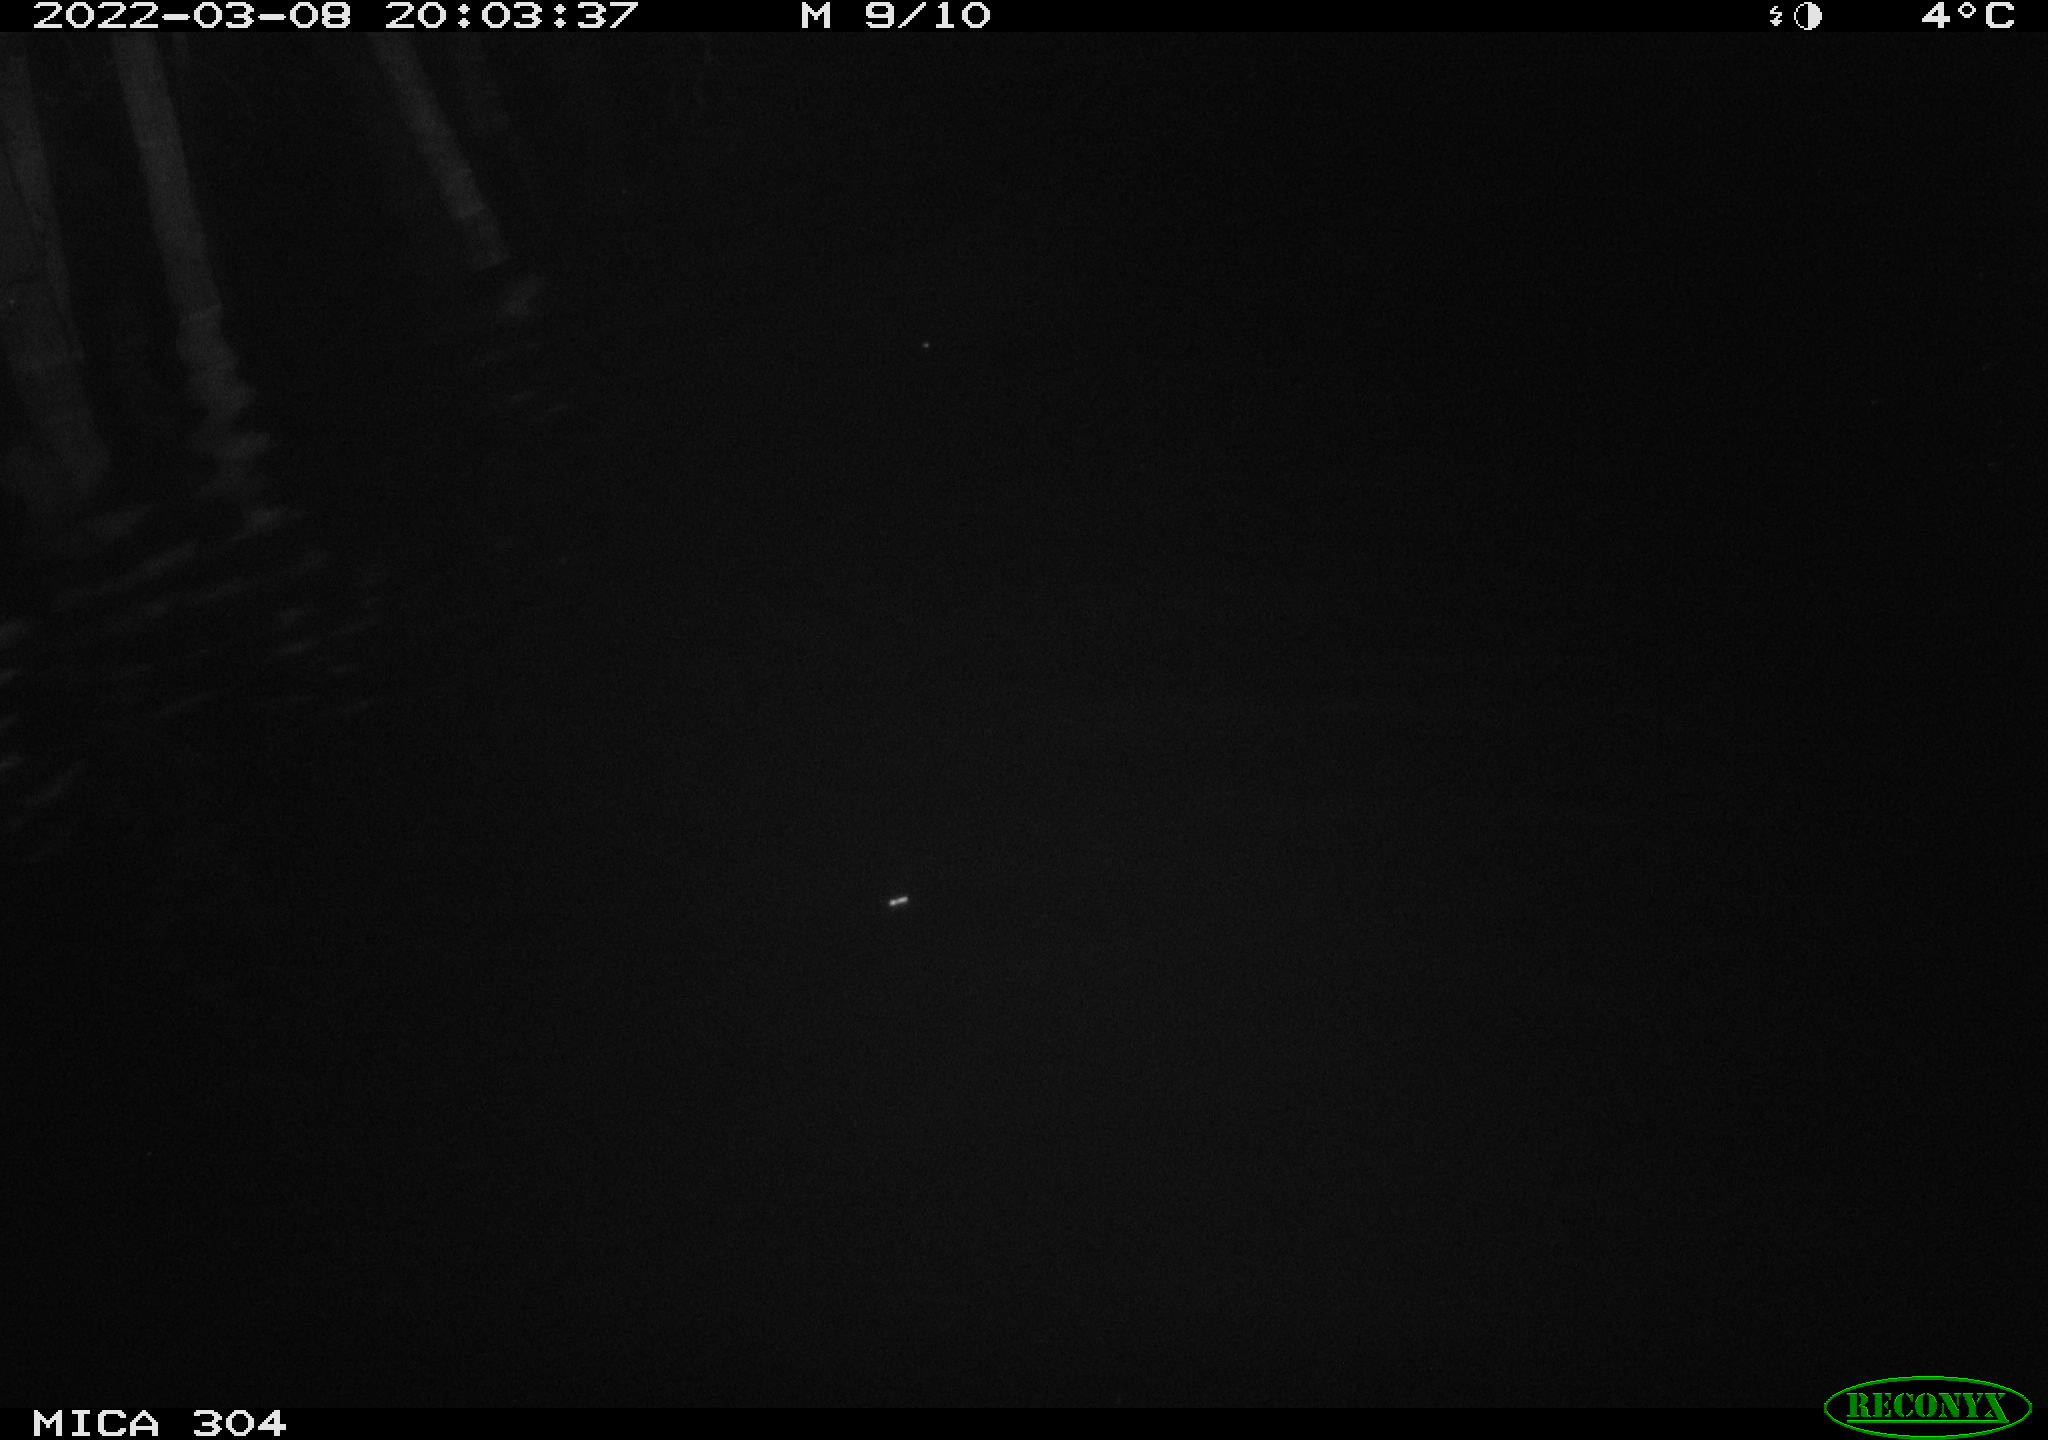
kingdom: Animalia
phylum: Chordata
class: Mammalia
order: Rodentia
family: Cricetidae
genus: Ondatra
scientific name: Ondatra zibethicus
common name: Muskrat
